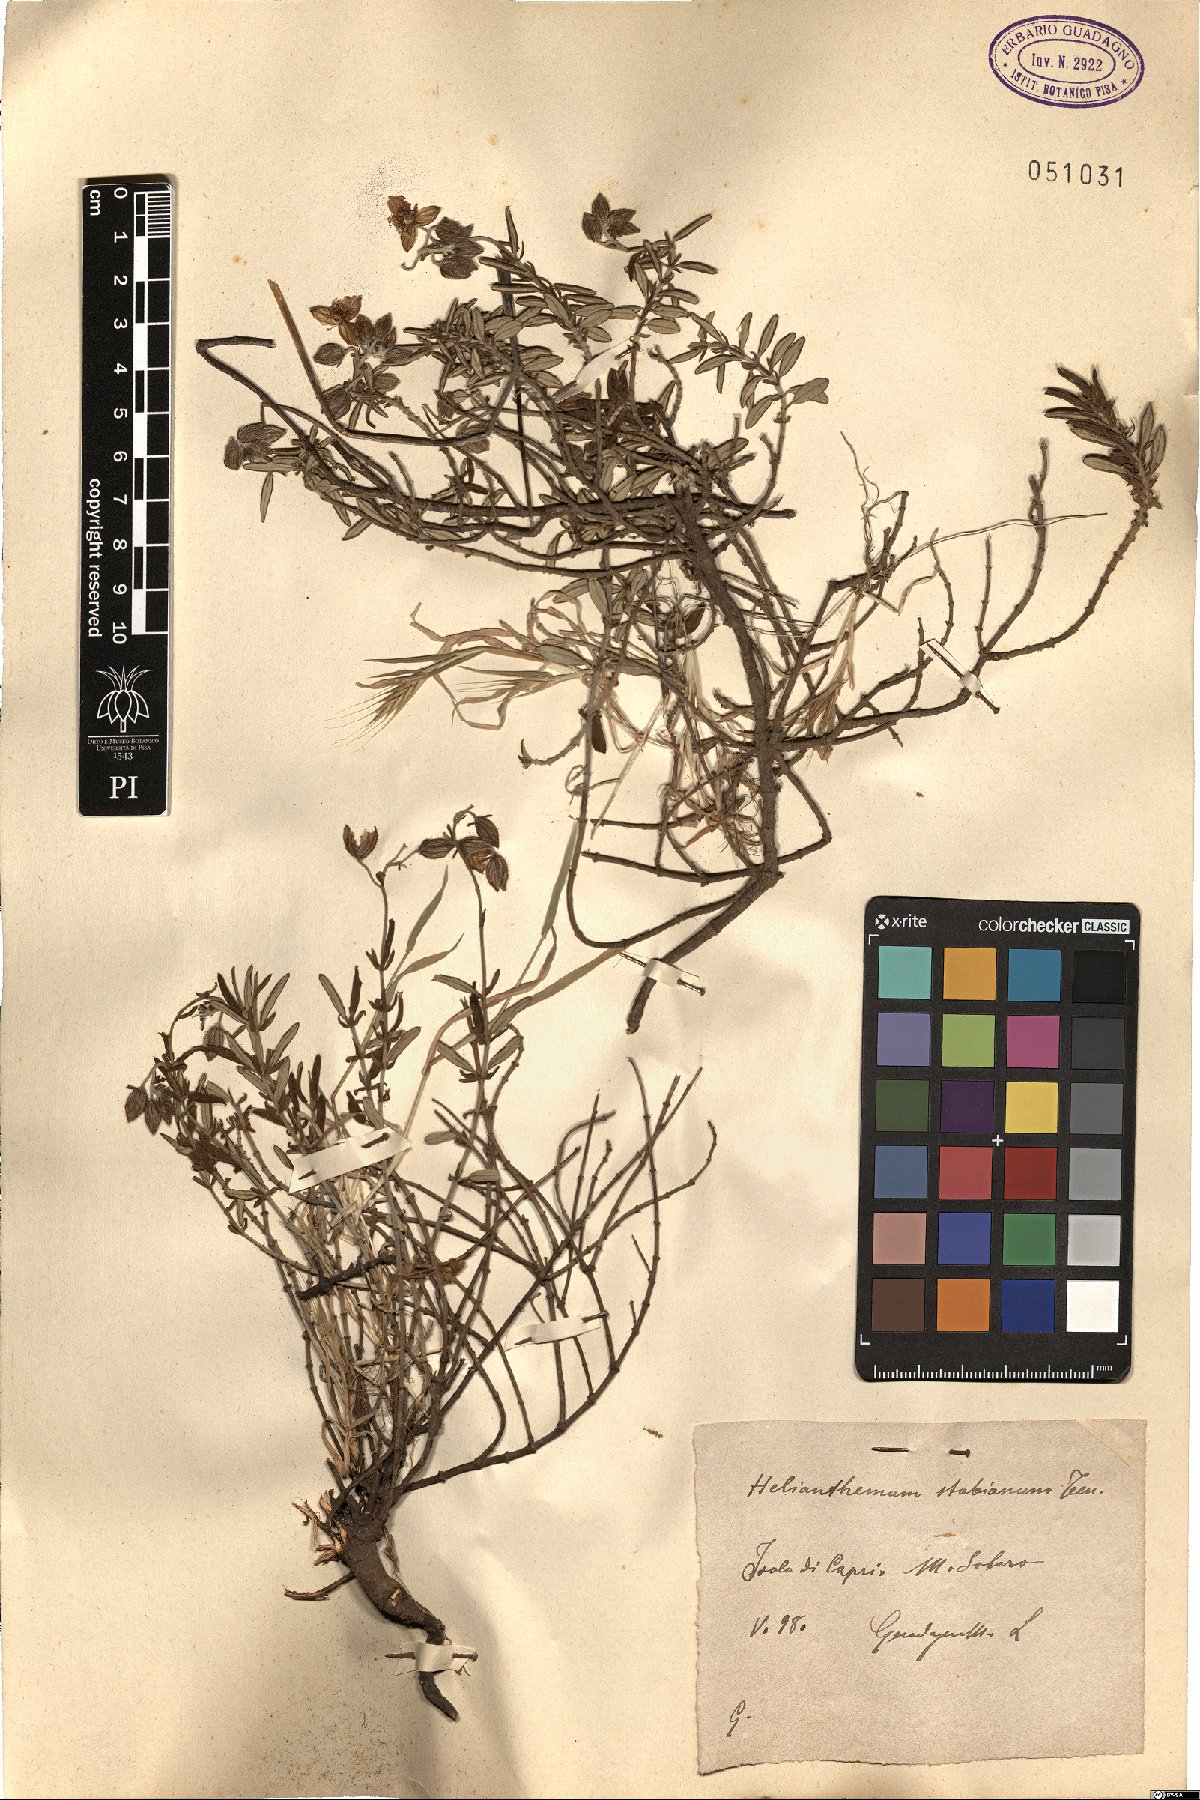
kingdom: Plantae
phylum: Tracheophyta
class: Magnoliopsida
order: Malvales
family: Cistaceae
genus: Helianthemum
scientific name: Helianthemum croceum
